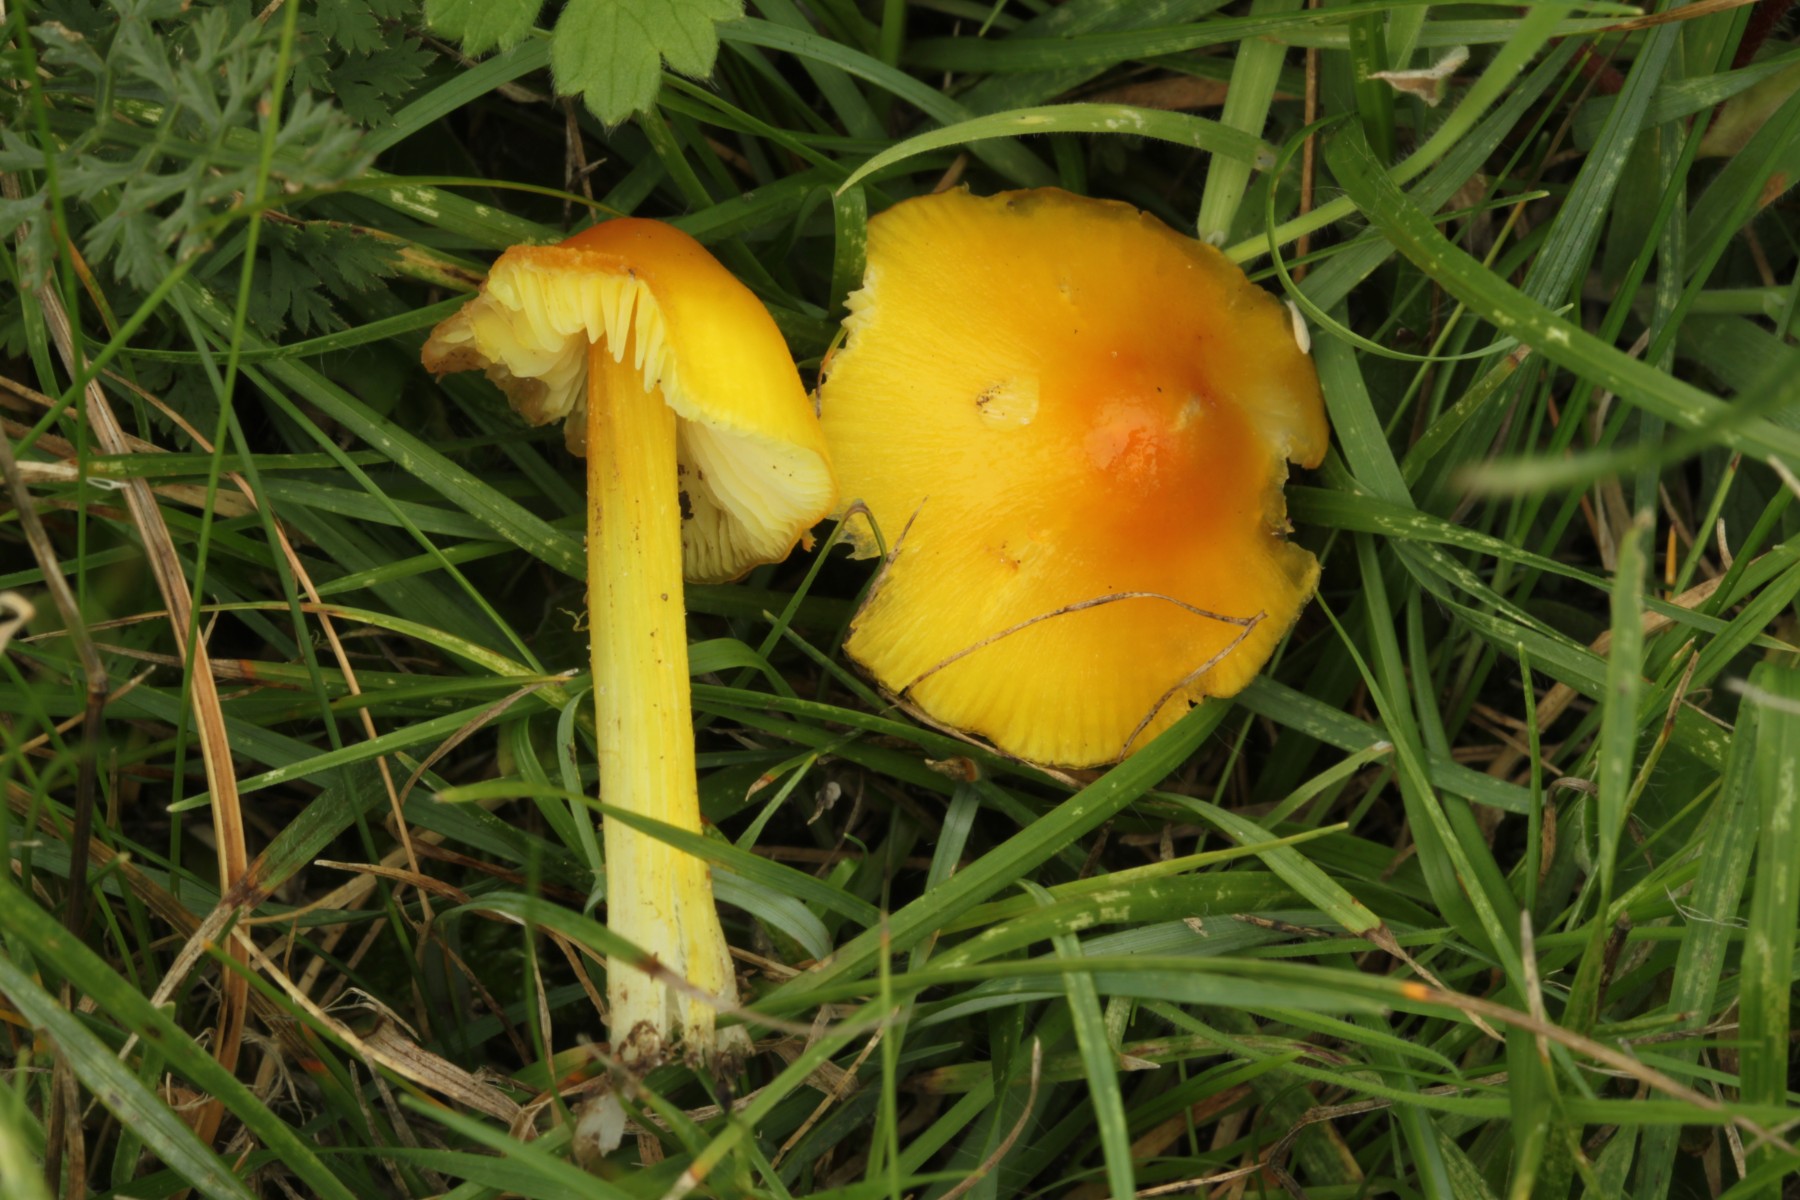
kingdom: Fungi
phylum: Basidiomycota
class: Agaricomycetes
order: Agaricales
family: Hygrophoraceae
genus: Hygrocybe
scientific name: Hygrocybe chlorophana
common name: gul vokshat
